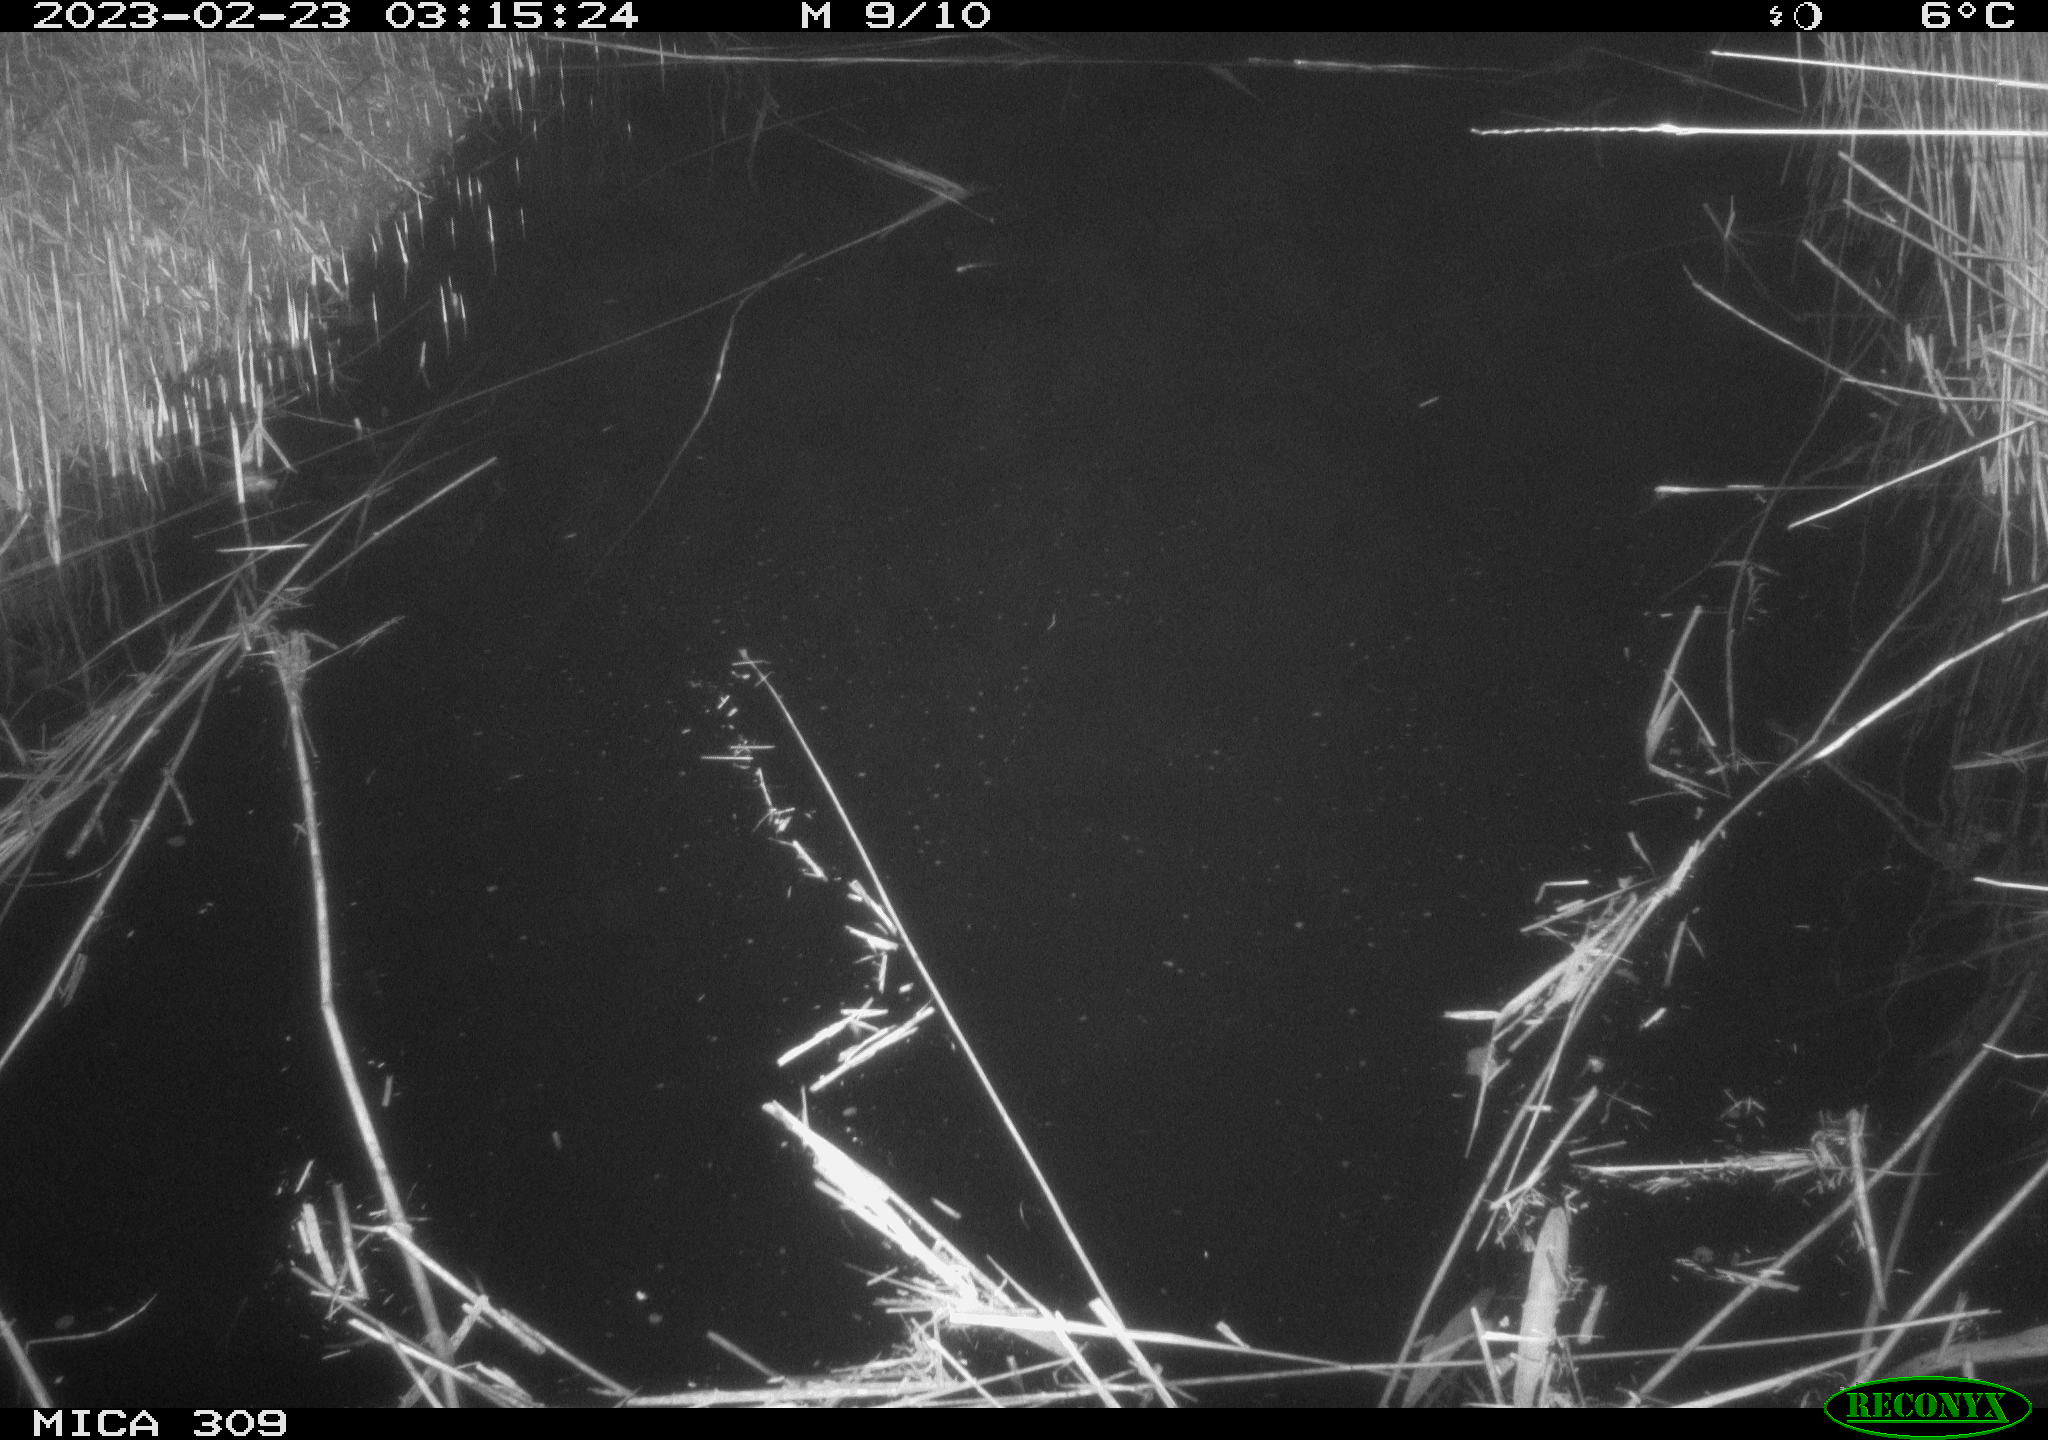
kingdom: Animalia
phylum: Chordata
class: Mammalia
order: Rodentia
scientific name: Rodentia
